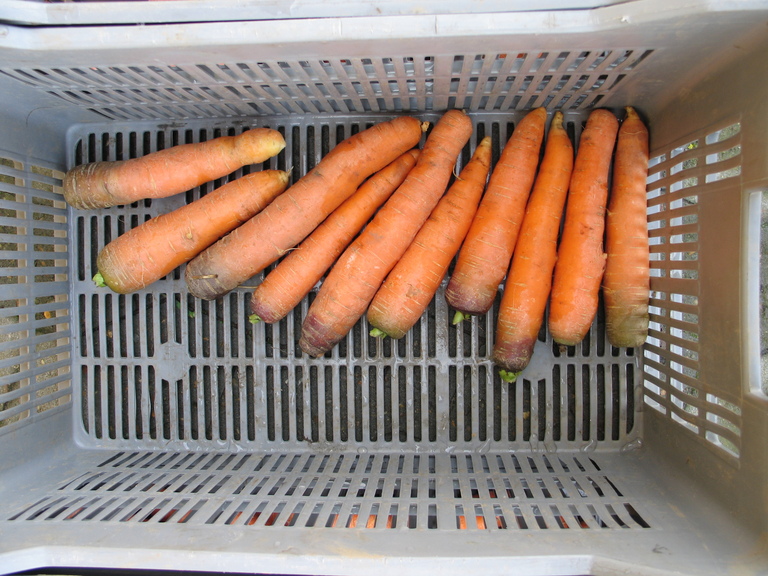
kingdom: Plantae
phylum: Tracheophyta
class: Magnoliopsida
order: Apiales
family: Apiaceae
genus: Daucus
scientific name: Daucus carota
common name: Wild carrot
